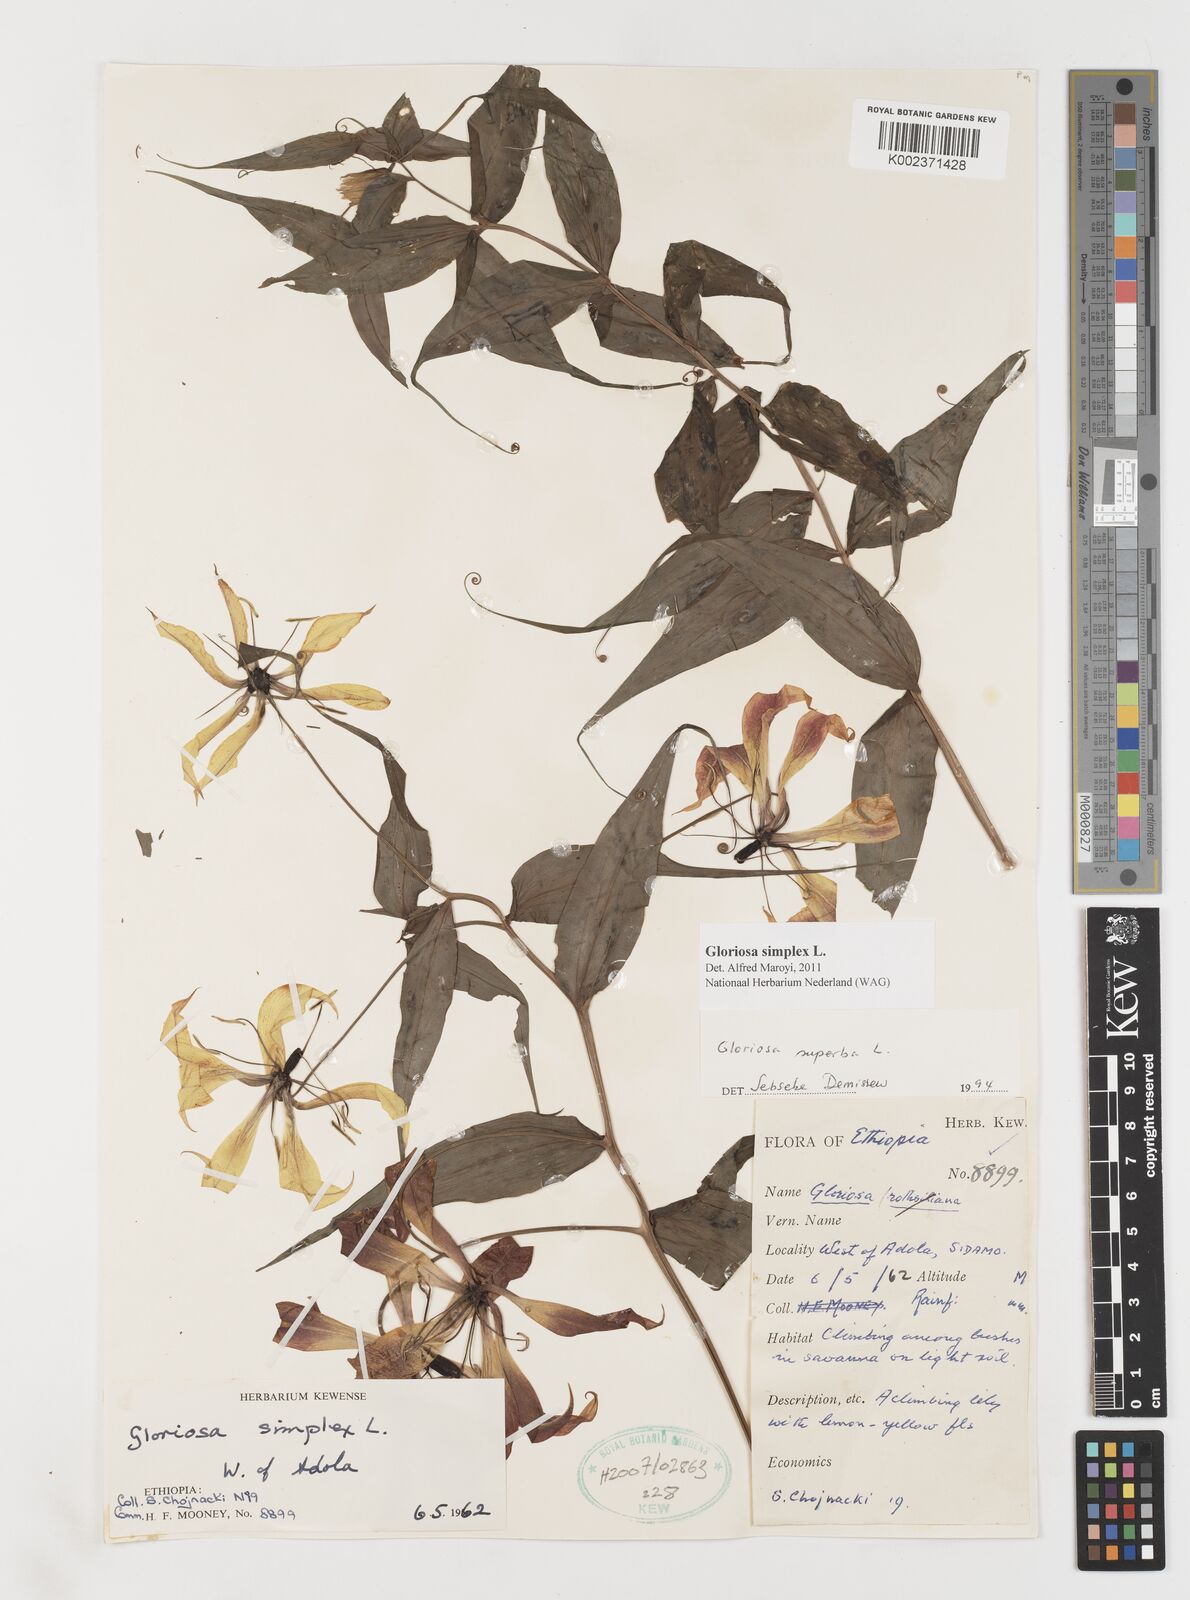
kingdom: Plantae
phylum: Tracheophyta
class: Liliopsida
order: Liliales
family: Colchicaceae
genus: Gloriosa
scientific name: Gloriosa simplex
